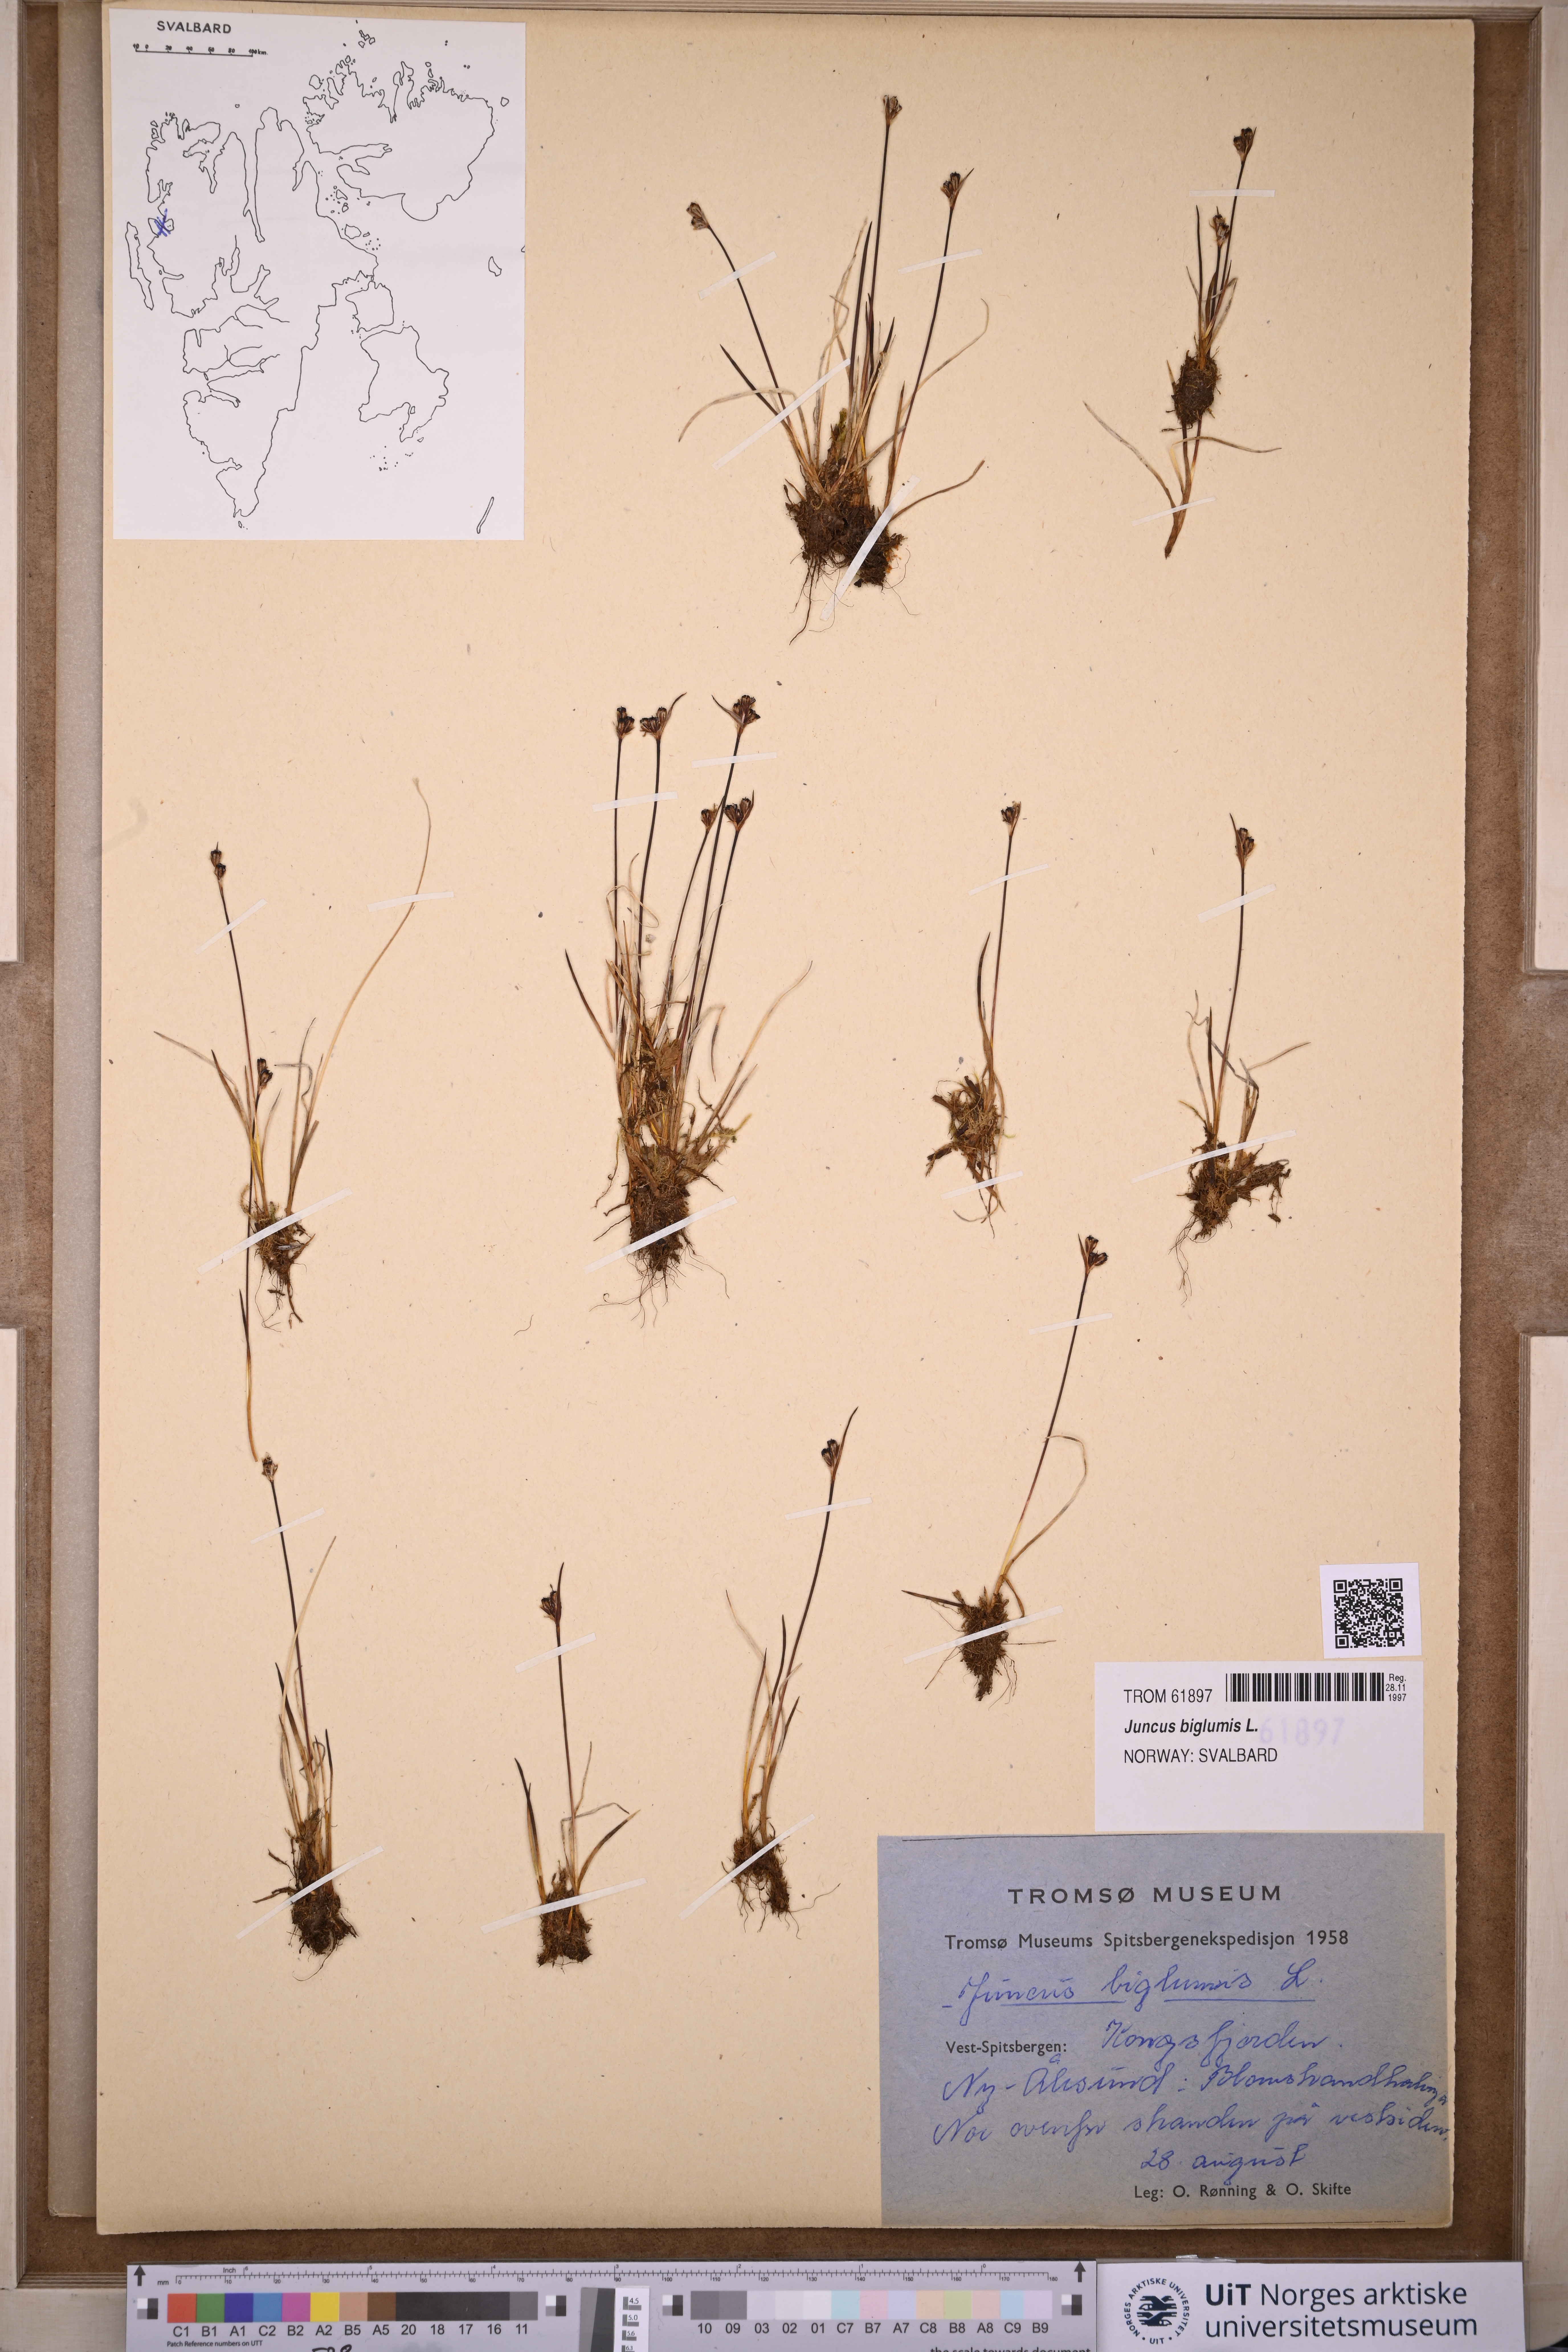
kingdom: Plantae
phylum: Tracheophyta
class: Liliopsida
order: Poales
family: Juncaceae
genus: Juncus
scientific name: Juncus biglumis
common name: Two-flowered rush
